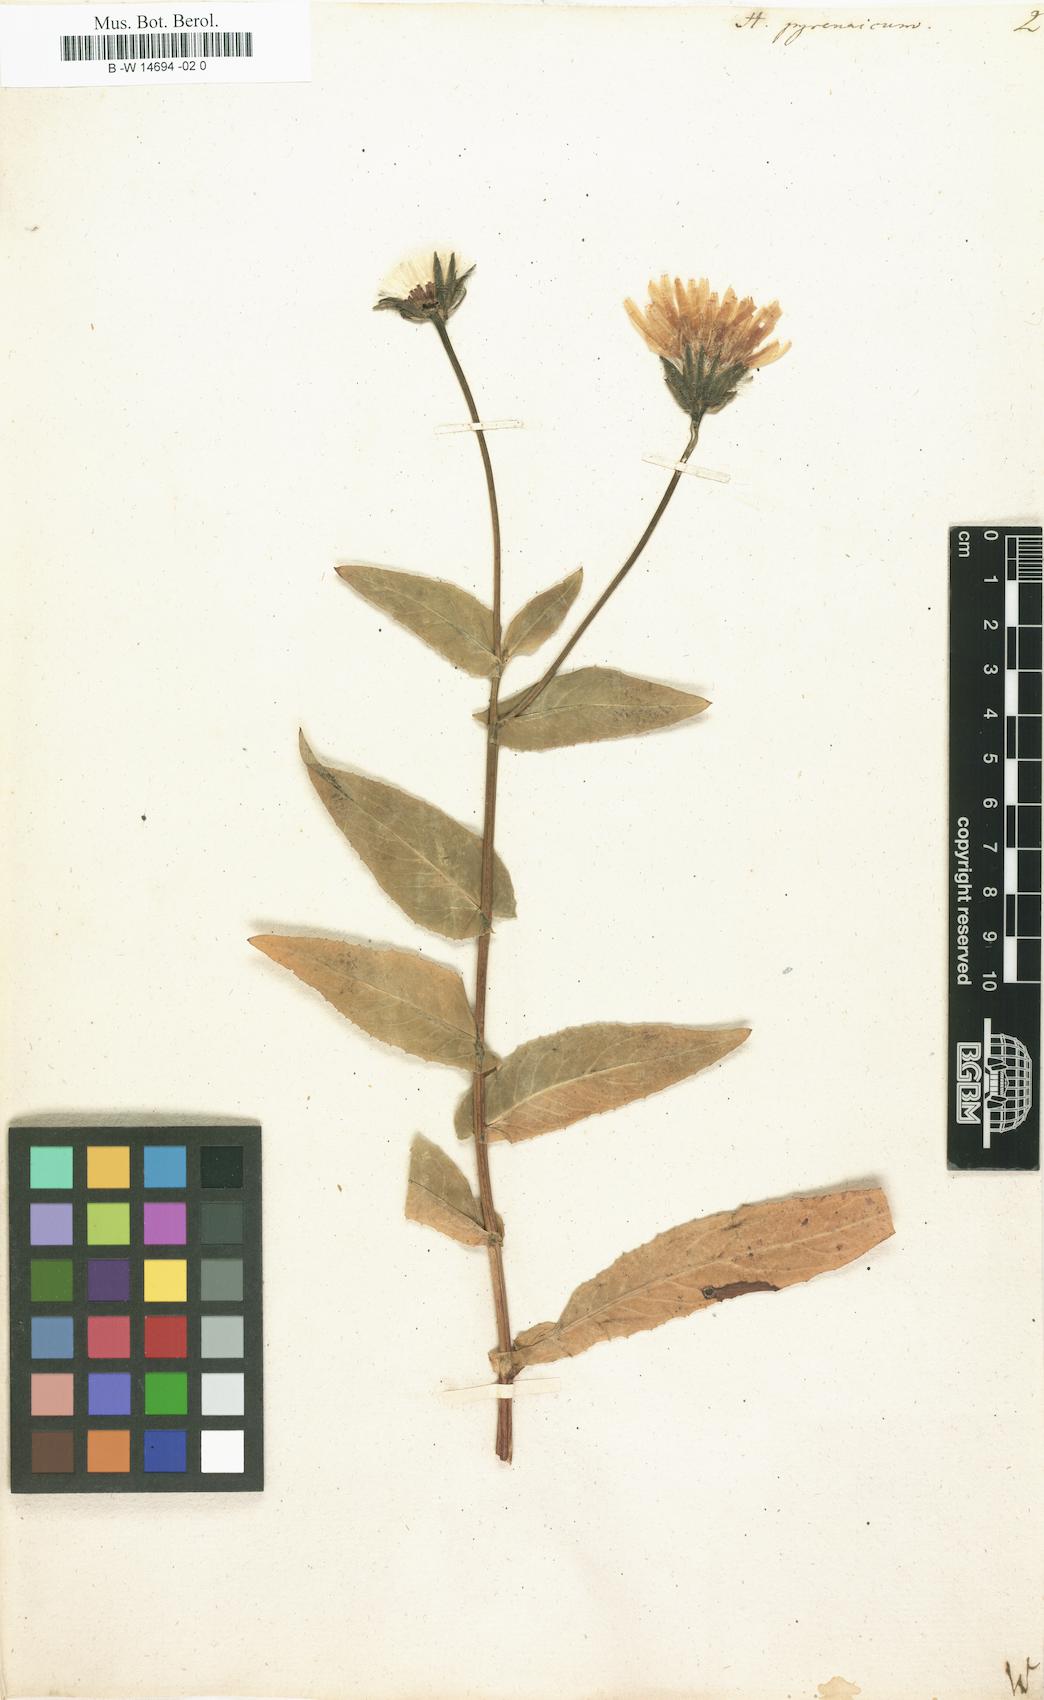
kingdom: Plantae
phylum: Tracheophyta
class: Magnoliopsida
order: Asterales
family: Asteraceae
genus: Hieracium
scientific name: Hieracium pyrenaicum
